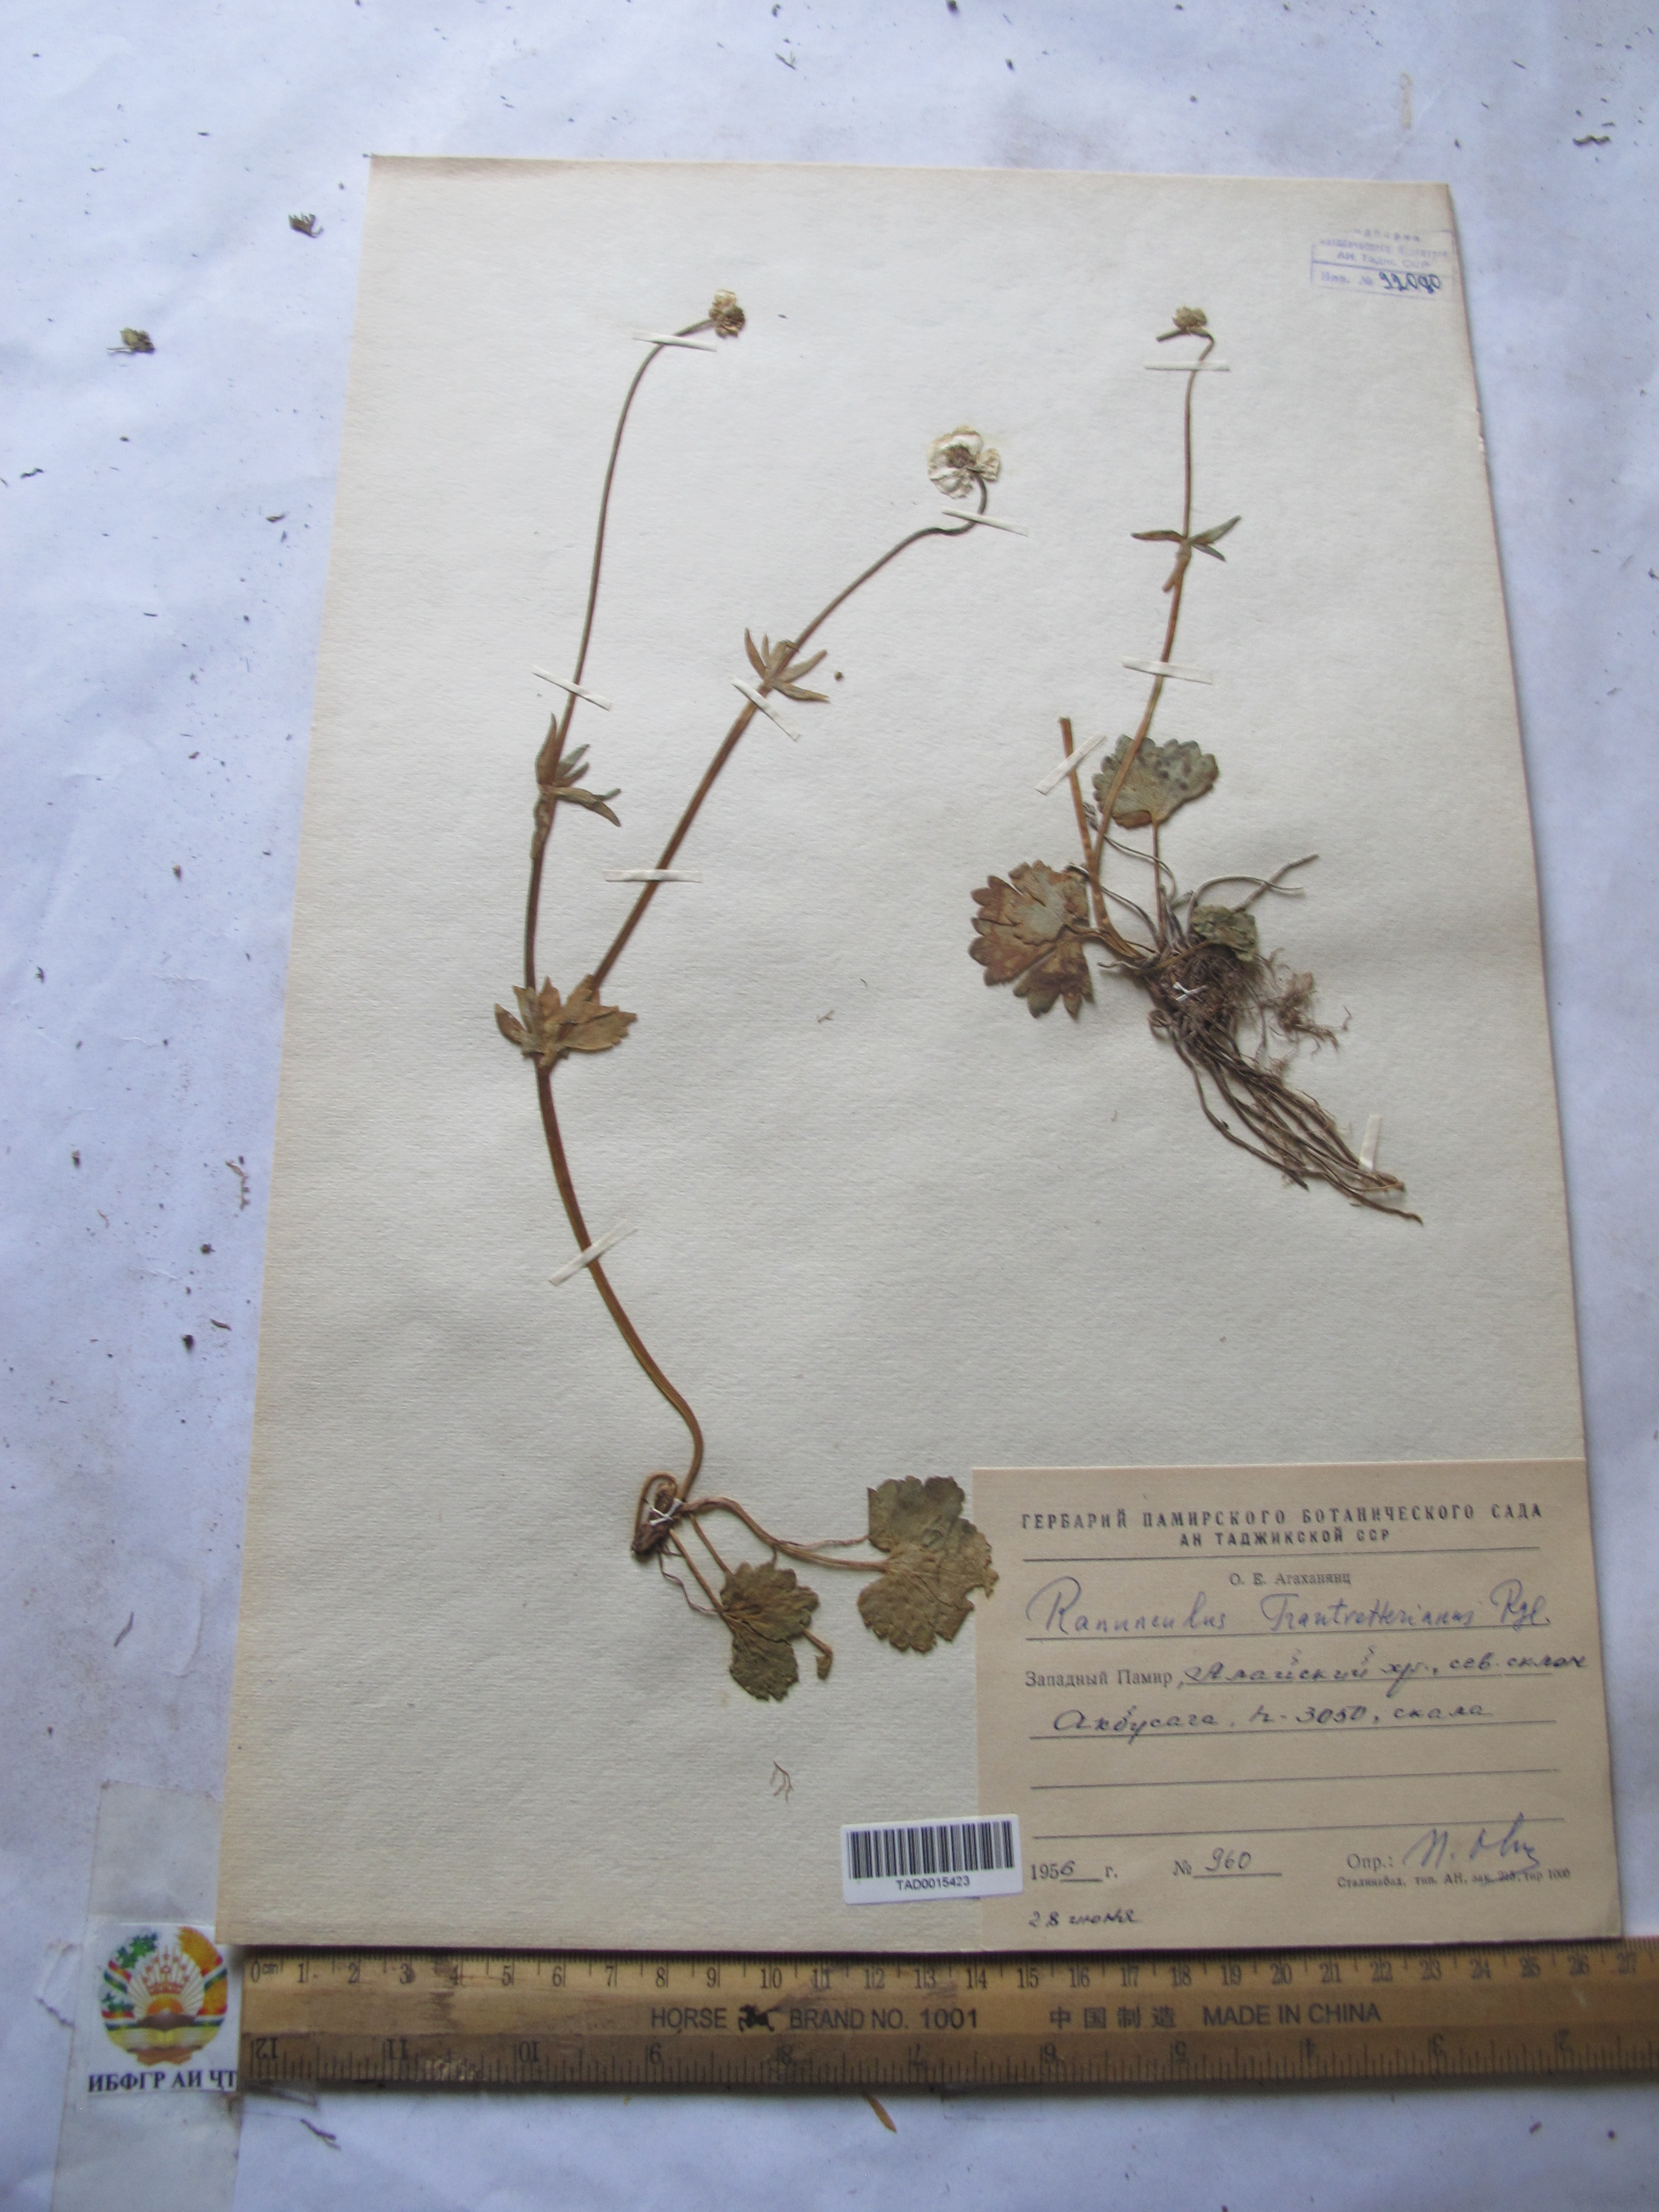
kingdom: Plantae
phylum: Tracheophyta
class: Magnoliopsida
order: Ranunculales
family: Ranunculaceae
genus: Ranunculus
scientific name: Ranunculus songaricus
